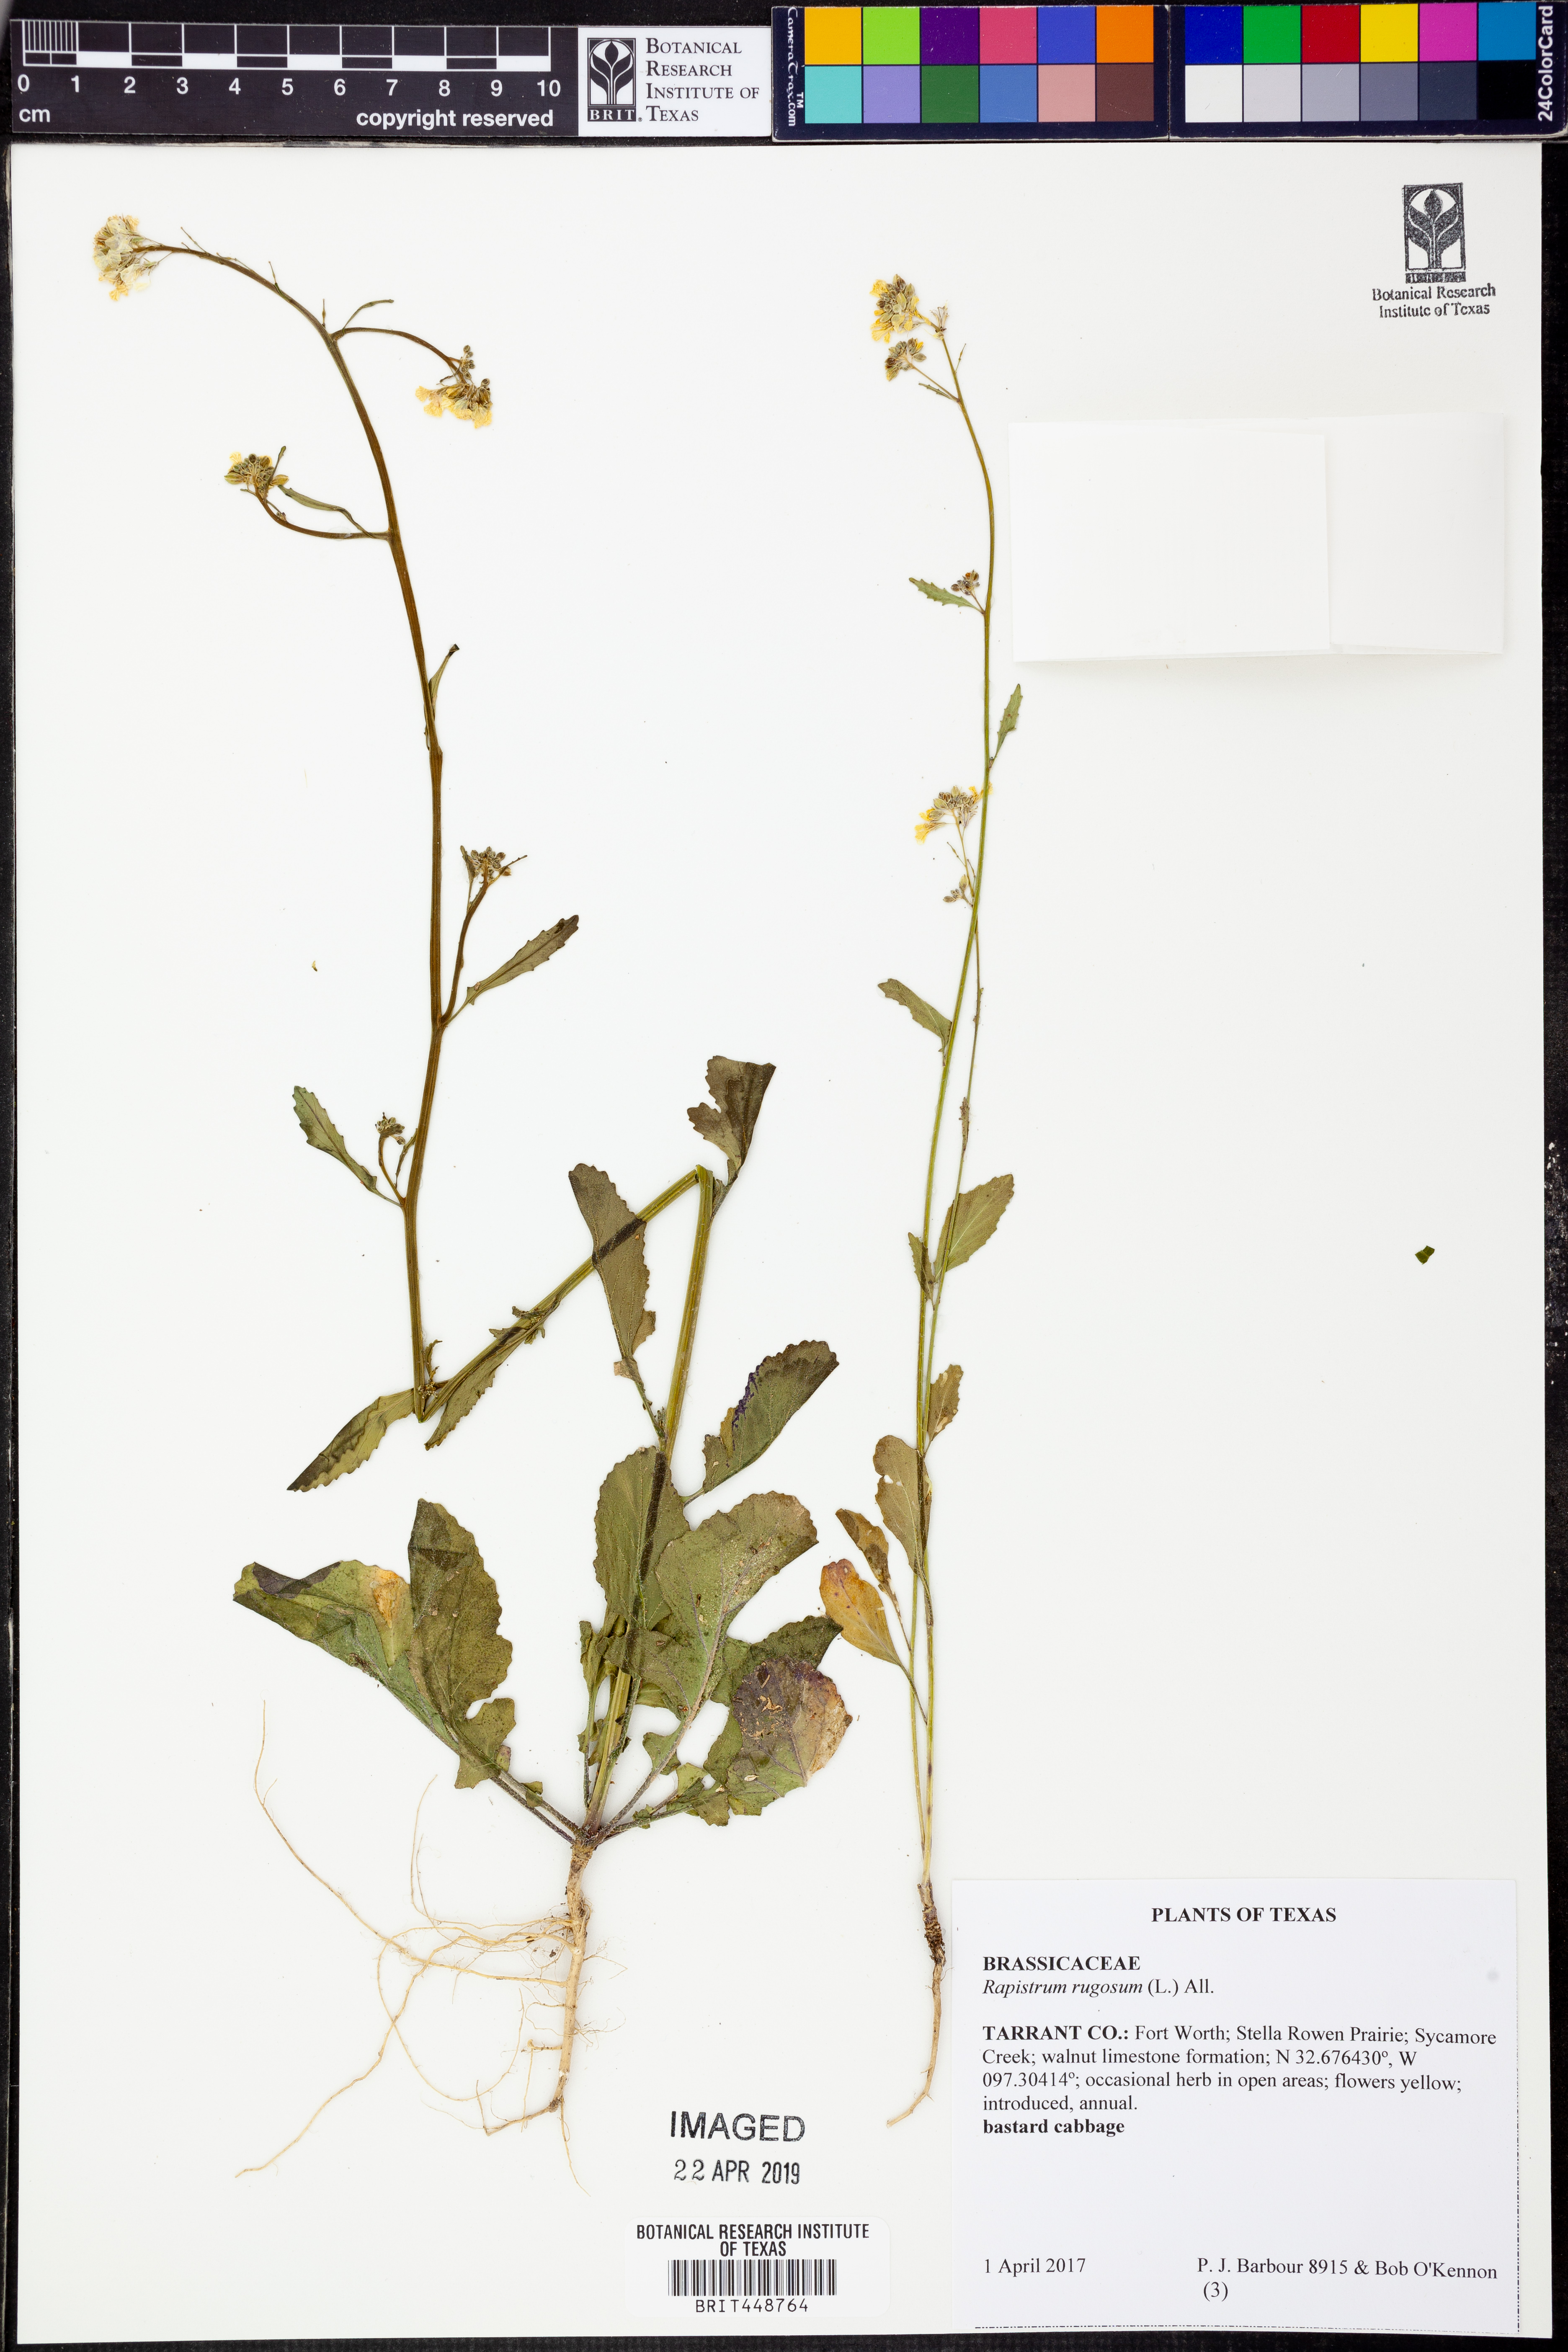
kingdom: Plantae
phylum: Tracheophyta
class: Magnoliopsida
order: Brassicales
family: Brassicaceae
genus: Rapistrum
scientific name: Rapistrum rugosum
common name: Annual bastardcabbage
